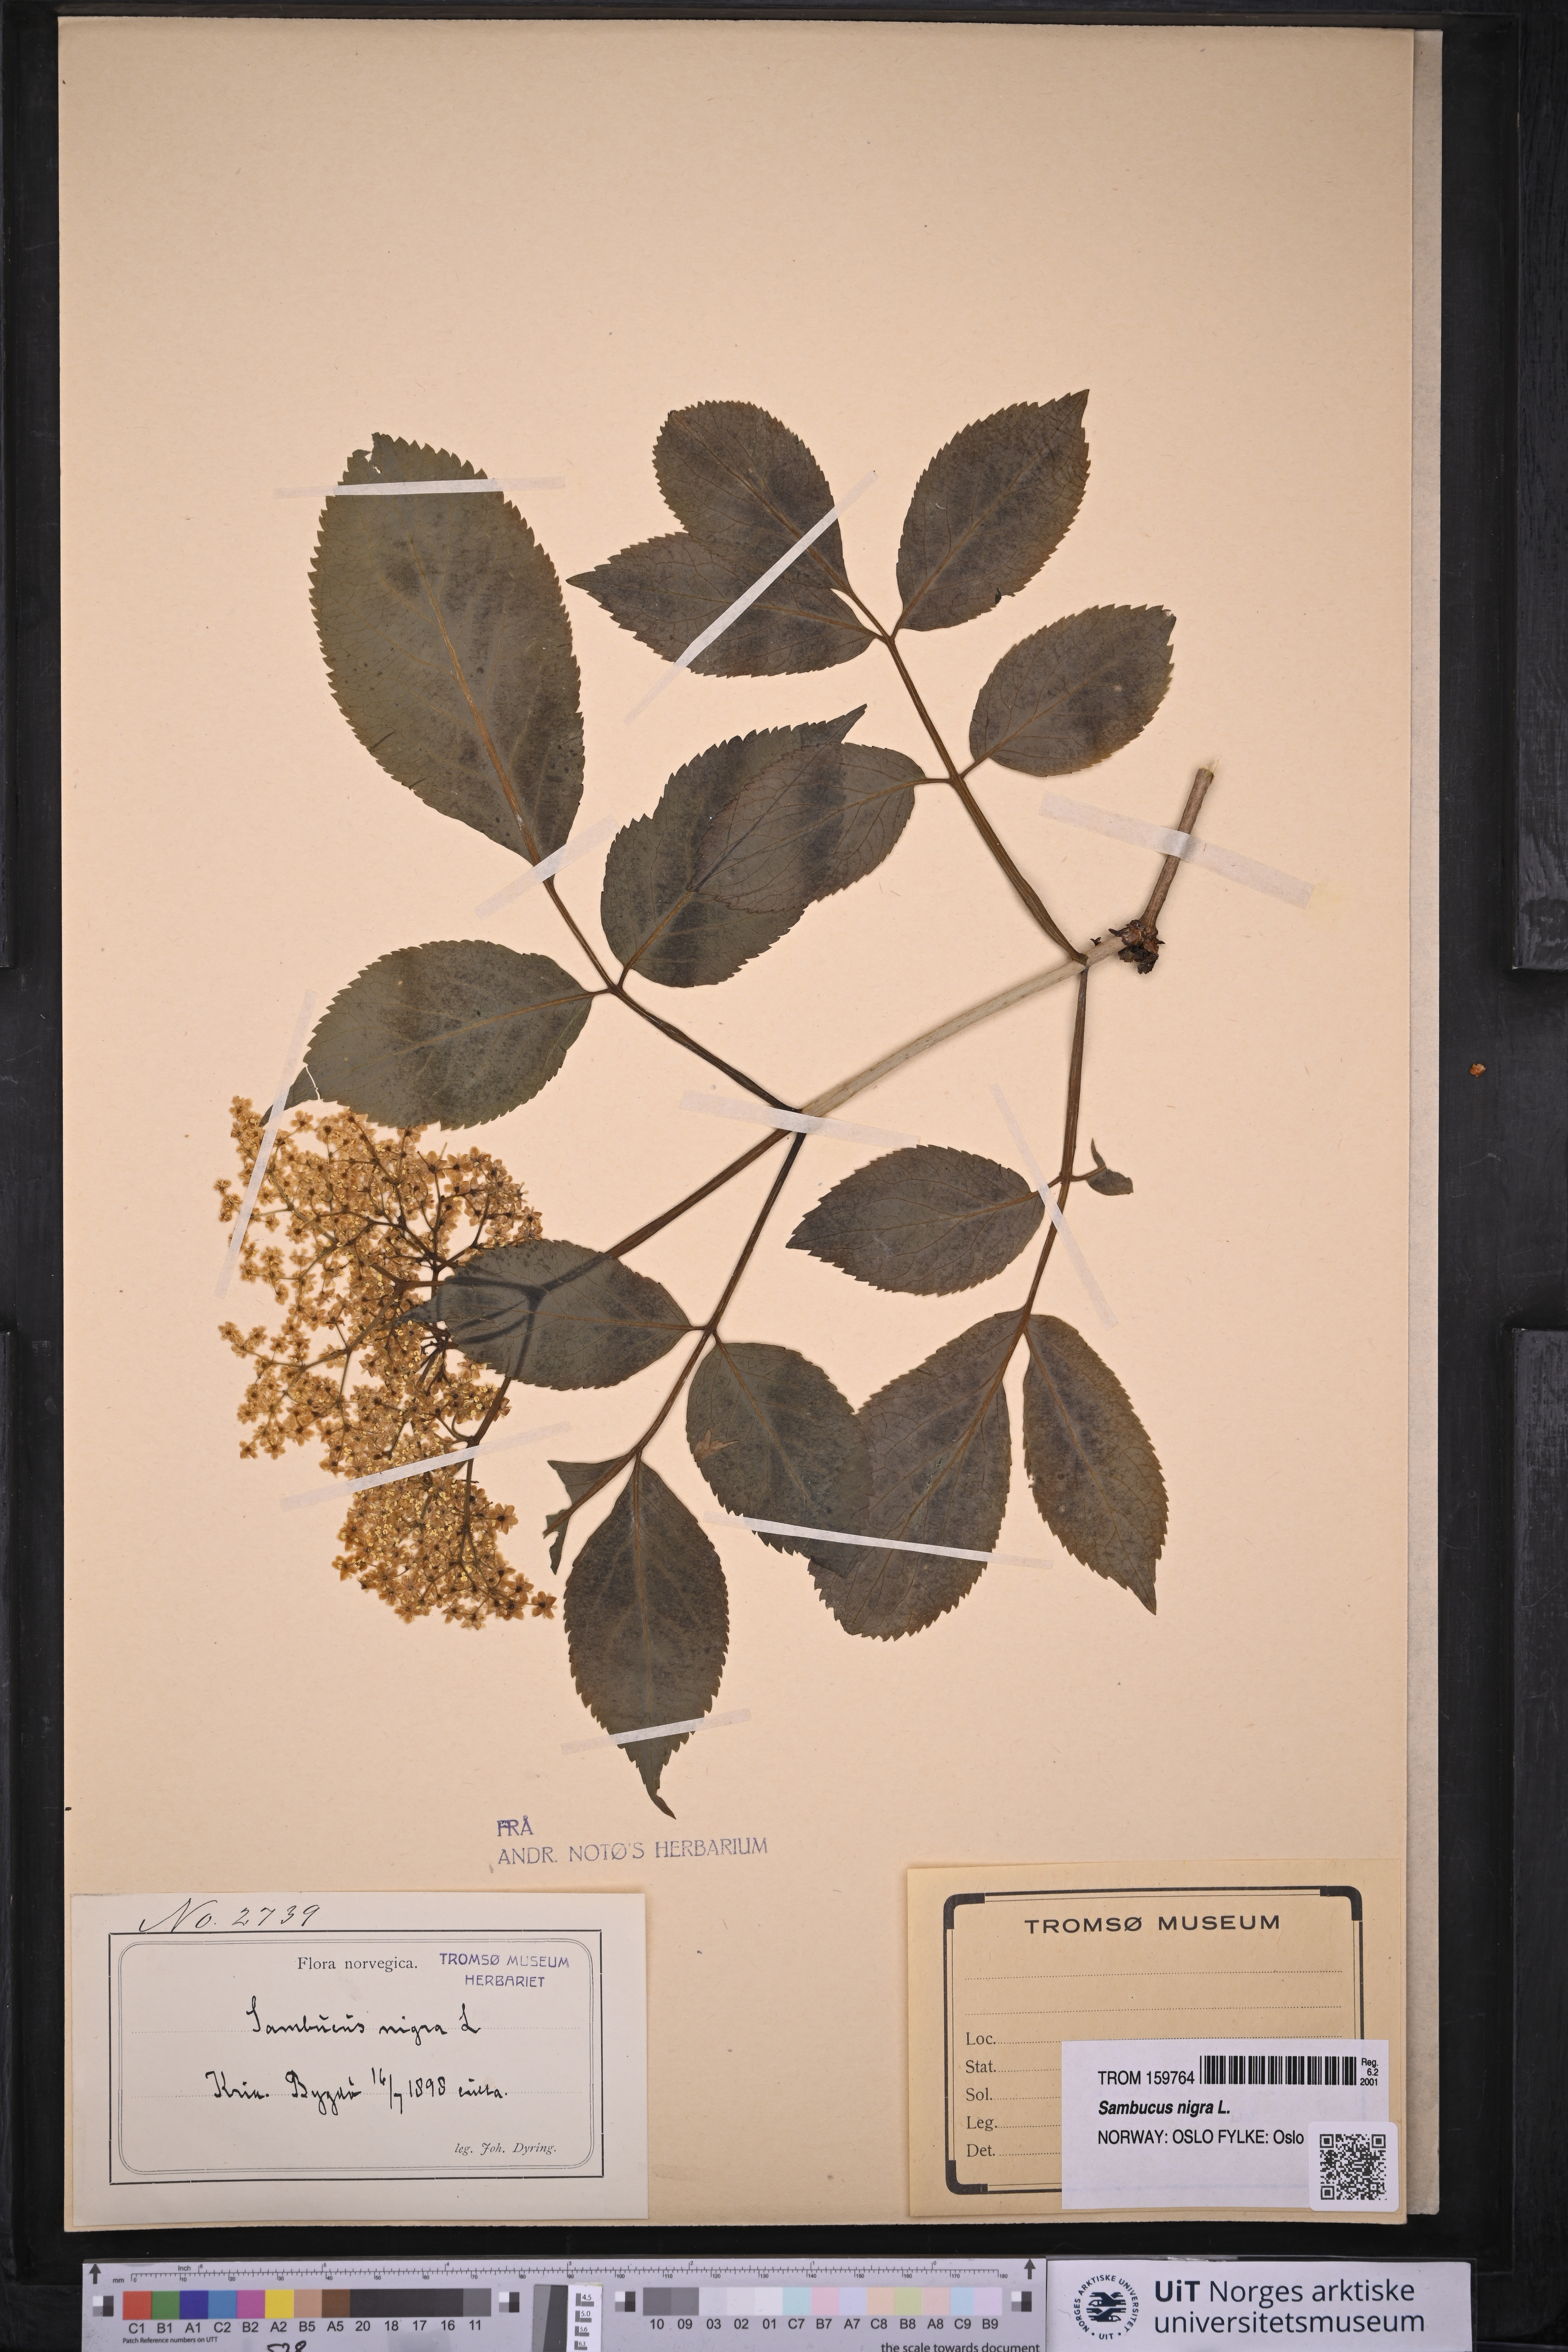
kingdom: Plantae
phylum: Tracheophyta
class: Magnoliopsida
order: Dipsacales
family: Viburnaceae
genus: Sambucus
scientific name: Sambucus nigra
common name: Elder
